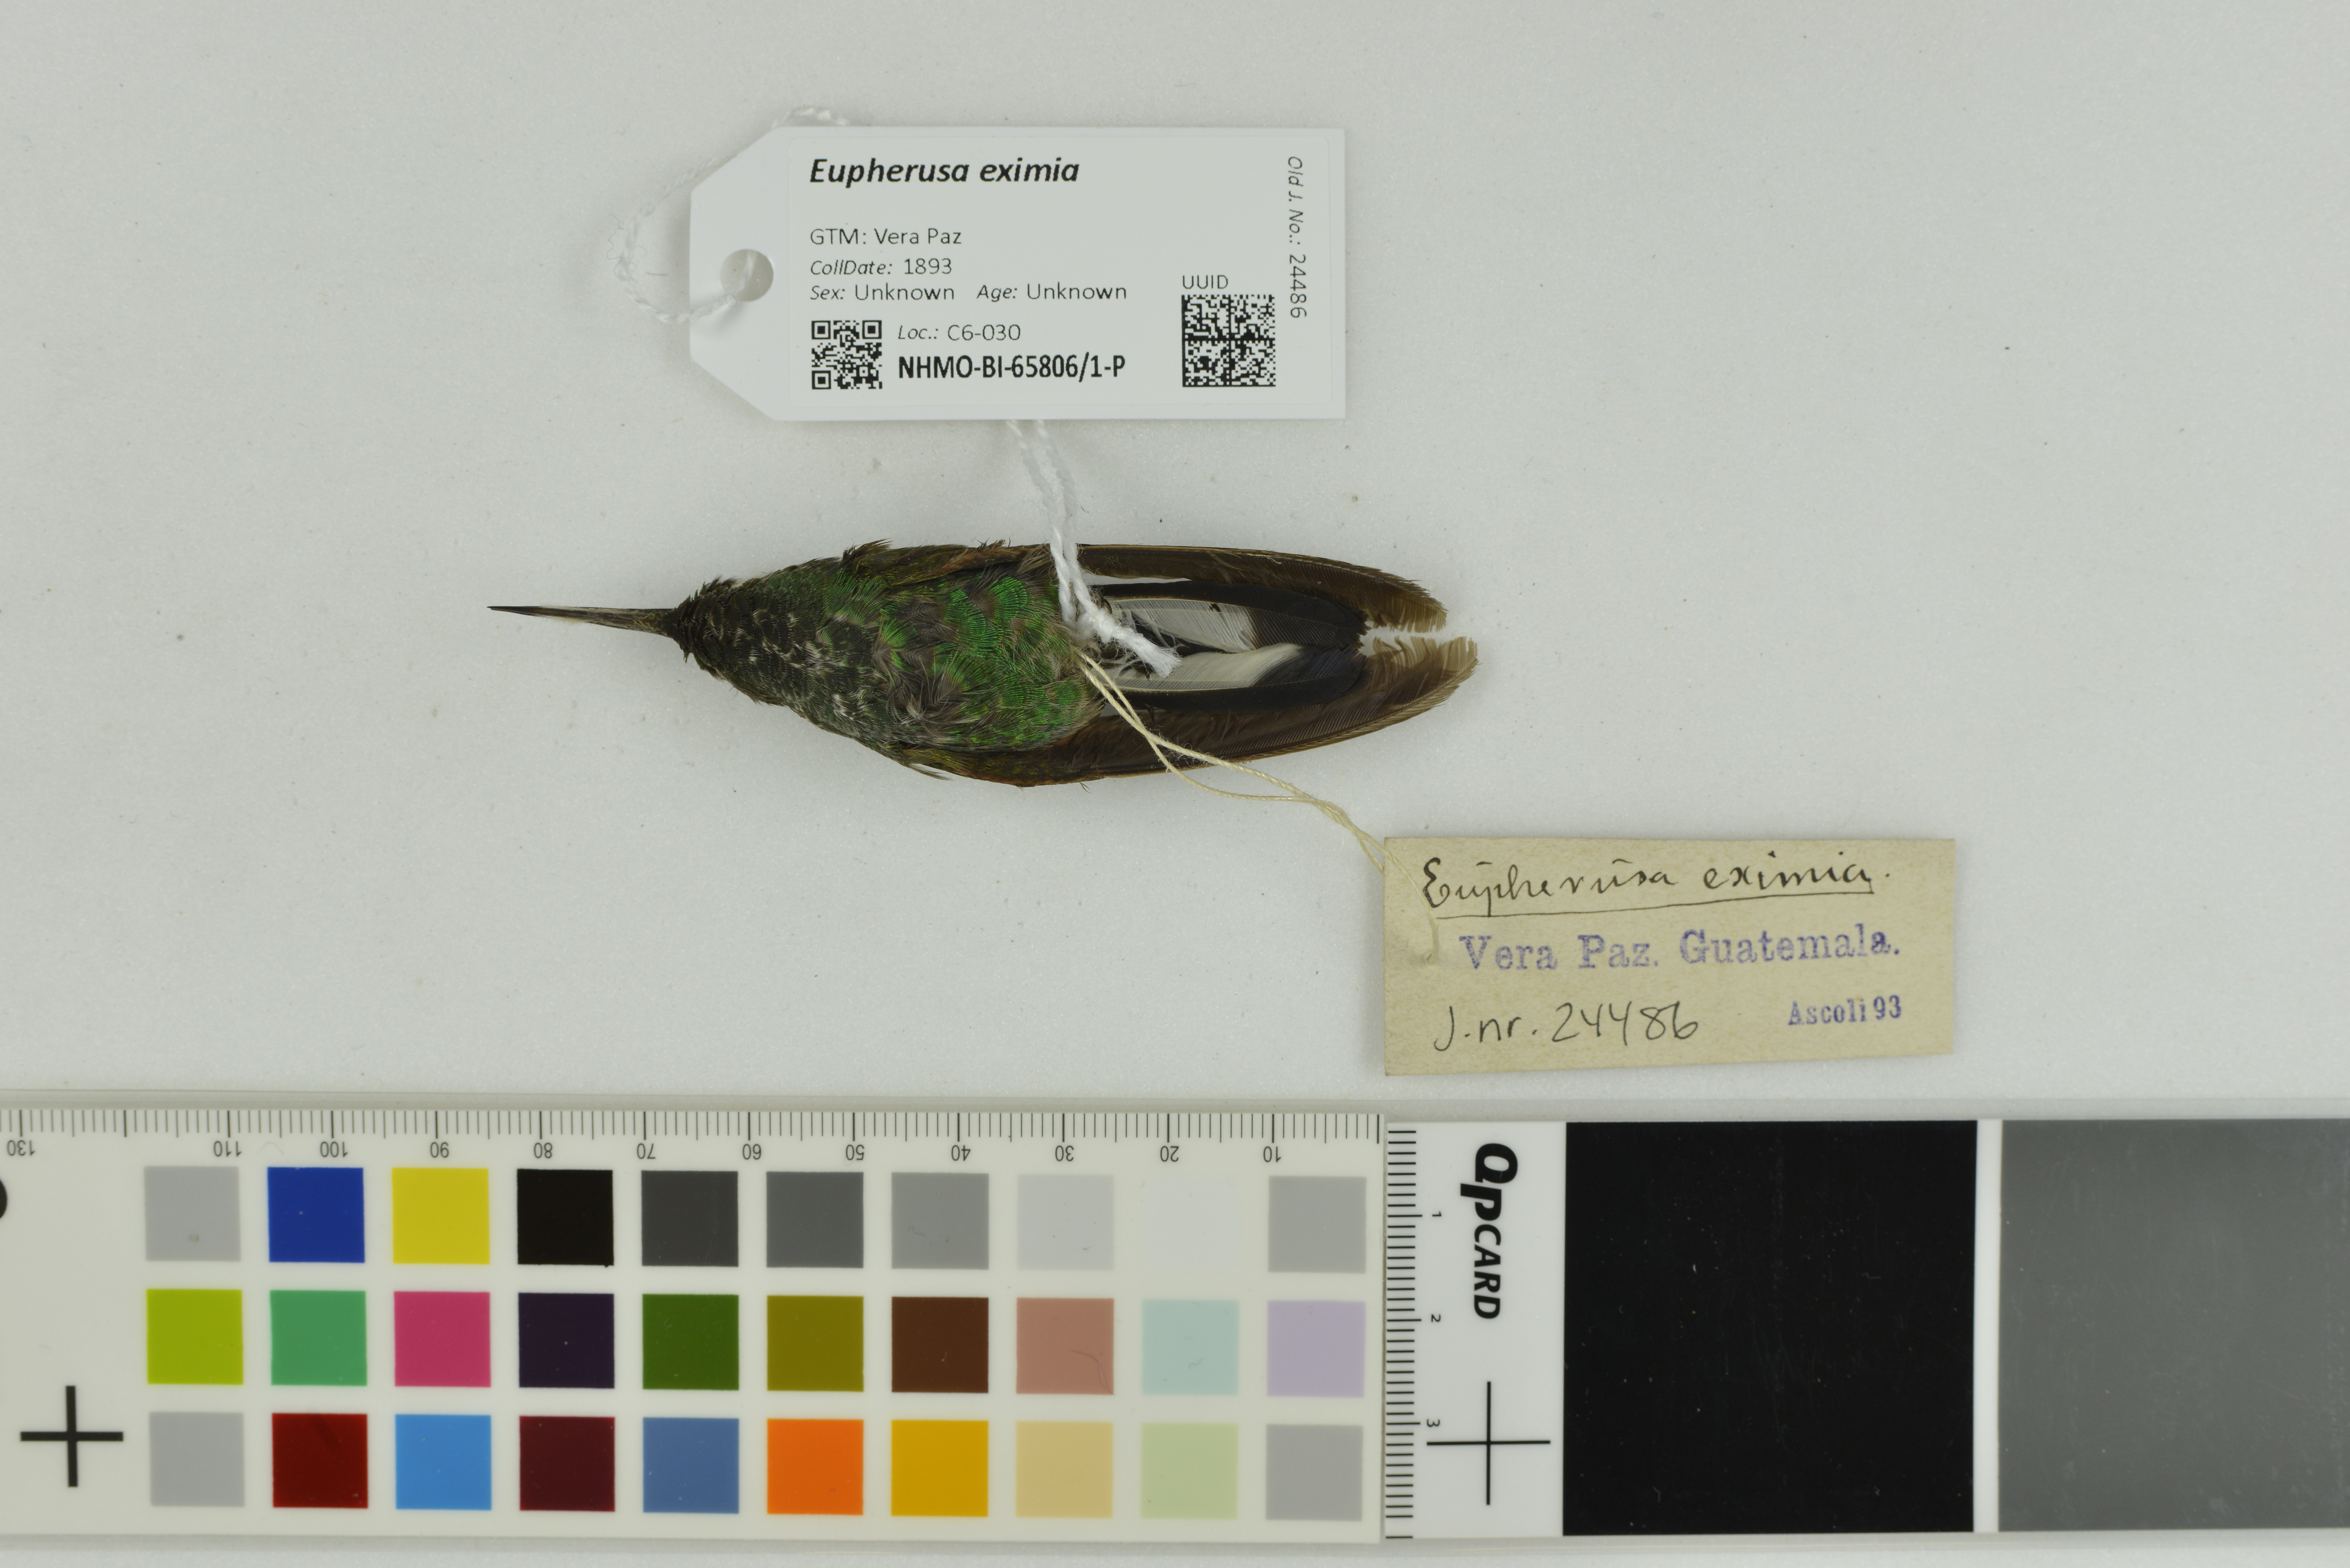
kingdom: Animalia
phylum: Chordata
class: Aves
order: Apodiformes
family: Trochilidae
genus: Eupherusa
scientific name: Eupherusa eximia
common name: Stripe-tailed hummingbird
